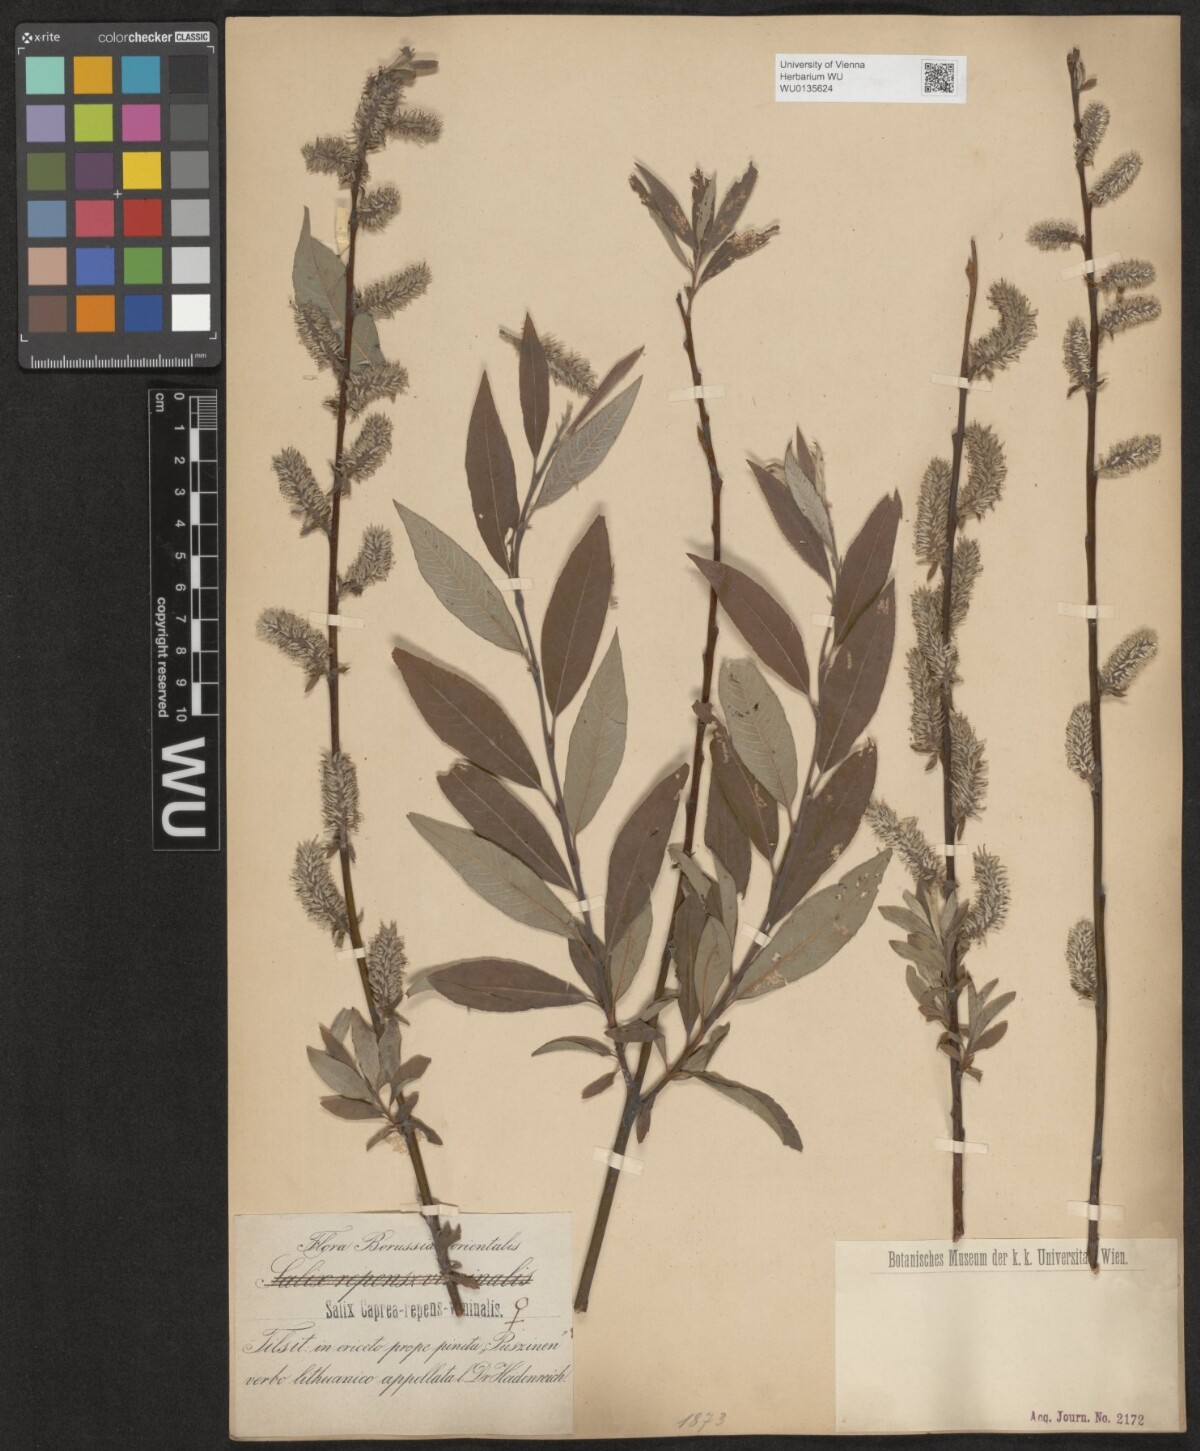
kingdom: Plantae
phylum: Tracheophyta
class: Magnoliopsida
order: Malpighiales
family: Salicaceae
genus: Salix
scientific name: Salix
